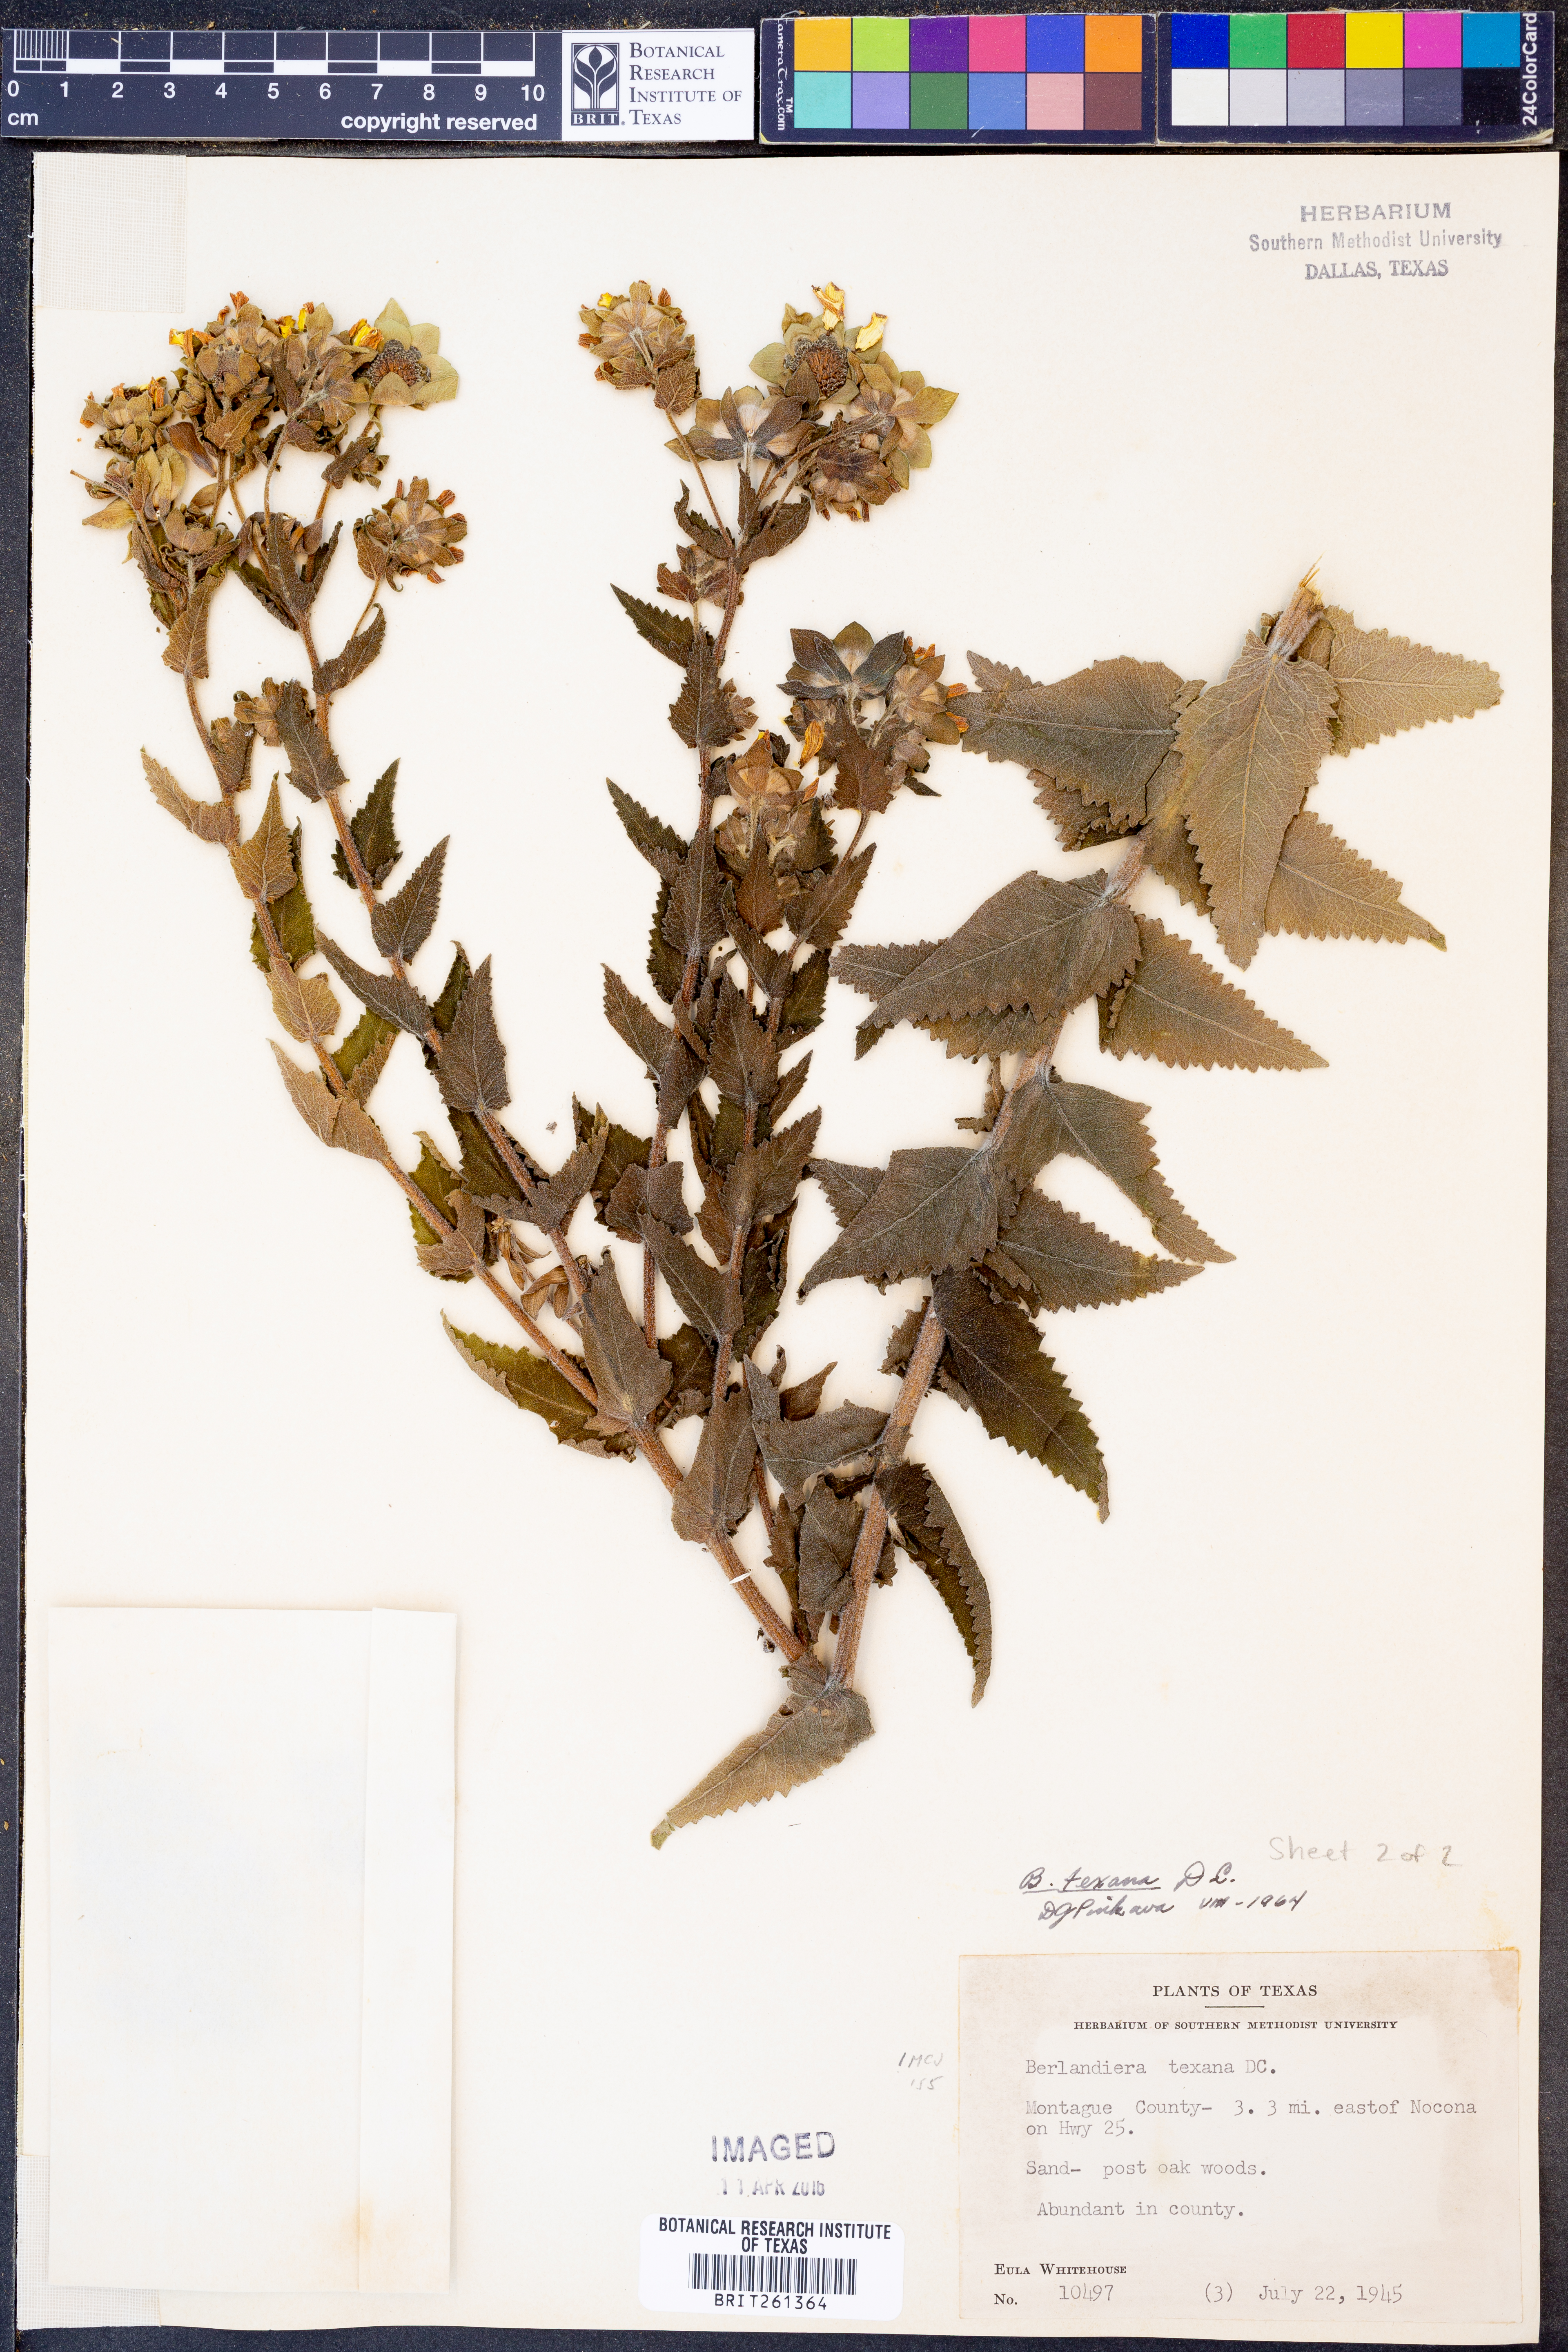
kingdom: Plantae
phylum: Tracheophyta
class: Magnoliopsida
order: Asterales
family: Asteraceae
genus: Berlandiera
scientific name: Berlandiera texana
